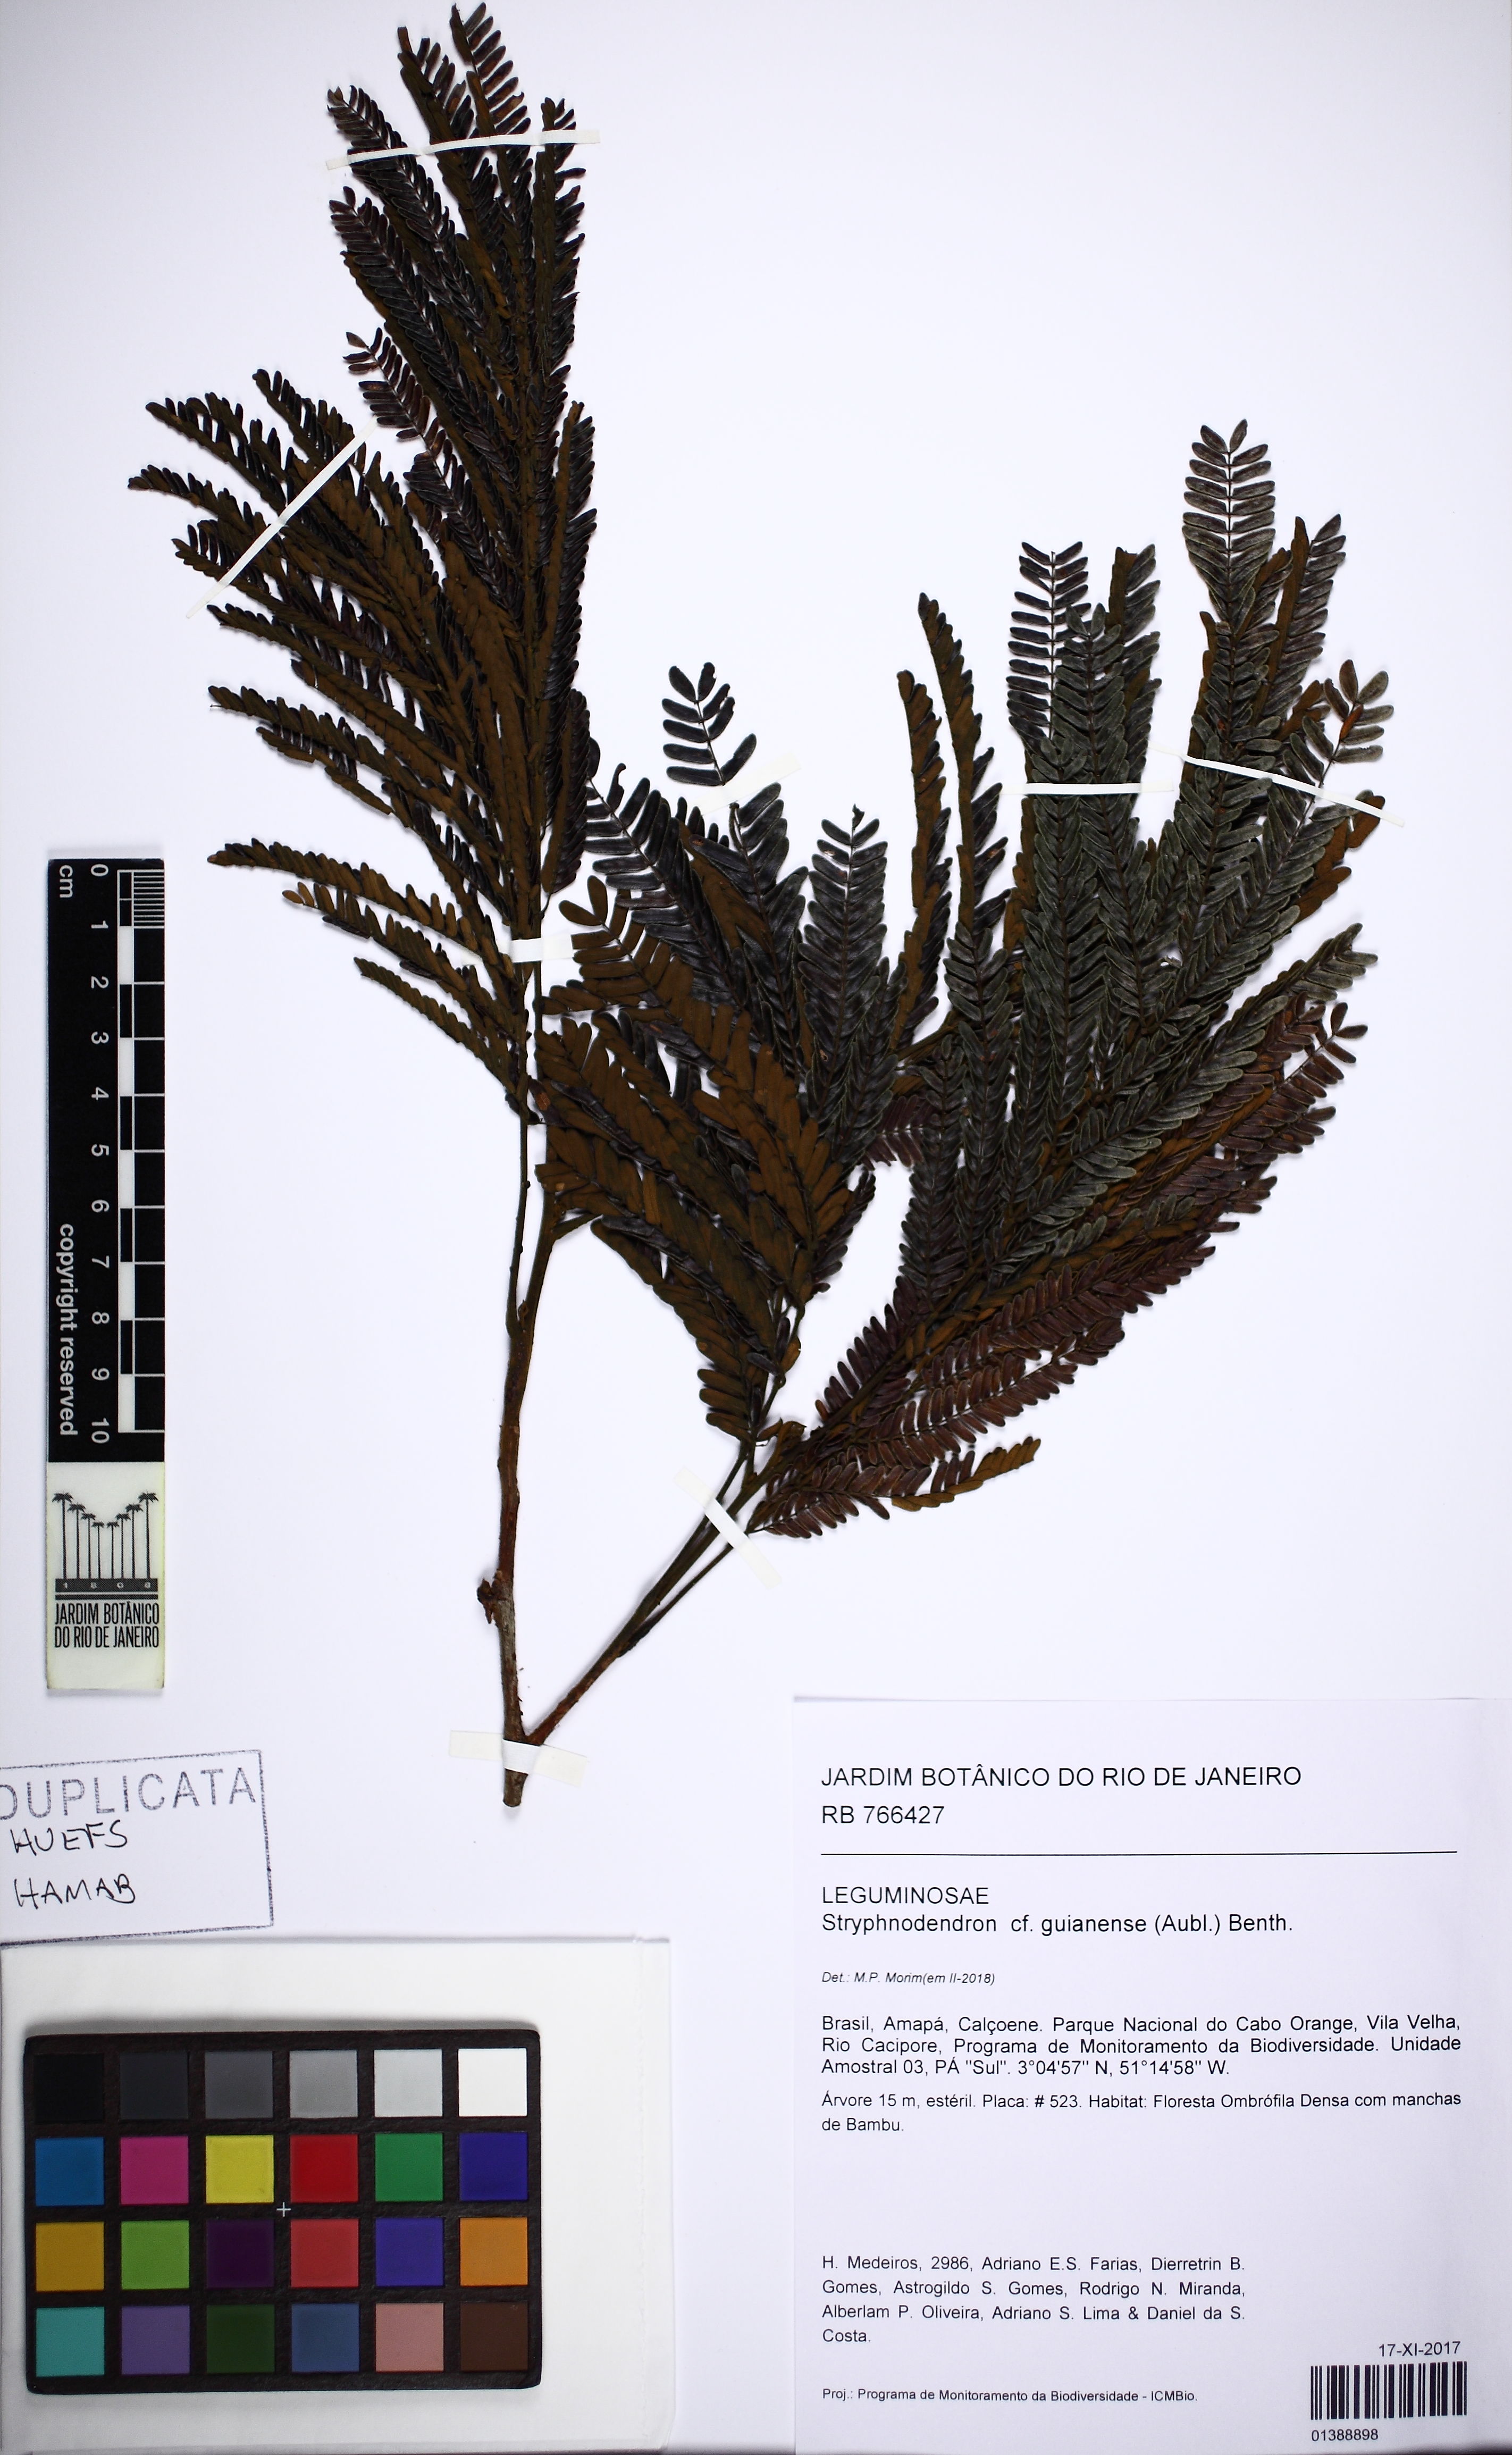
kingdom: Plantae
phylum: Tracheophyta
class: Magnoliopsida
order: Fabales
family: Fabaceae
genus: Stryphnodendron
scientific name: Stryphnodendron guianense
